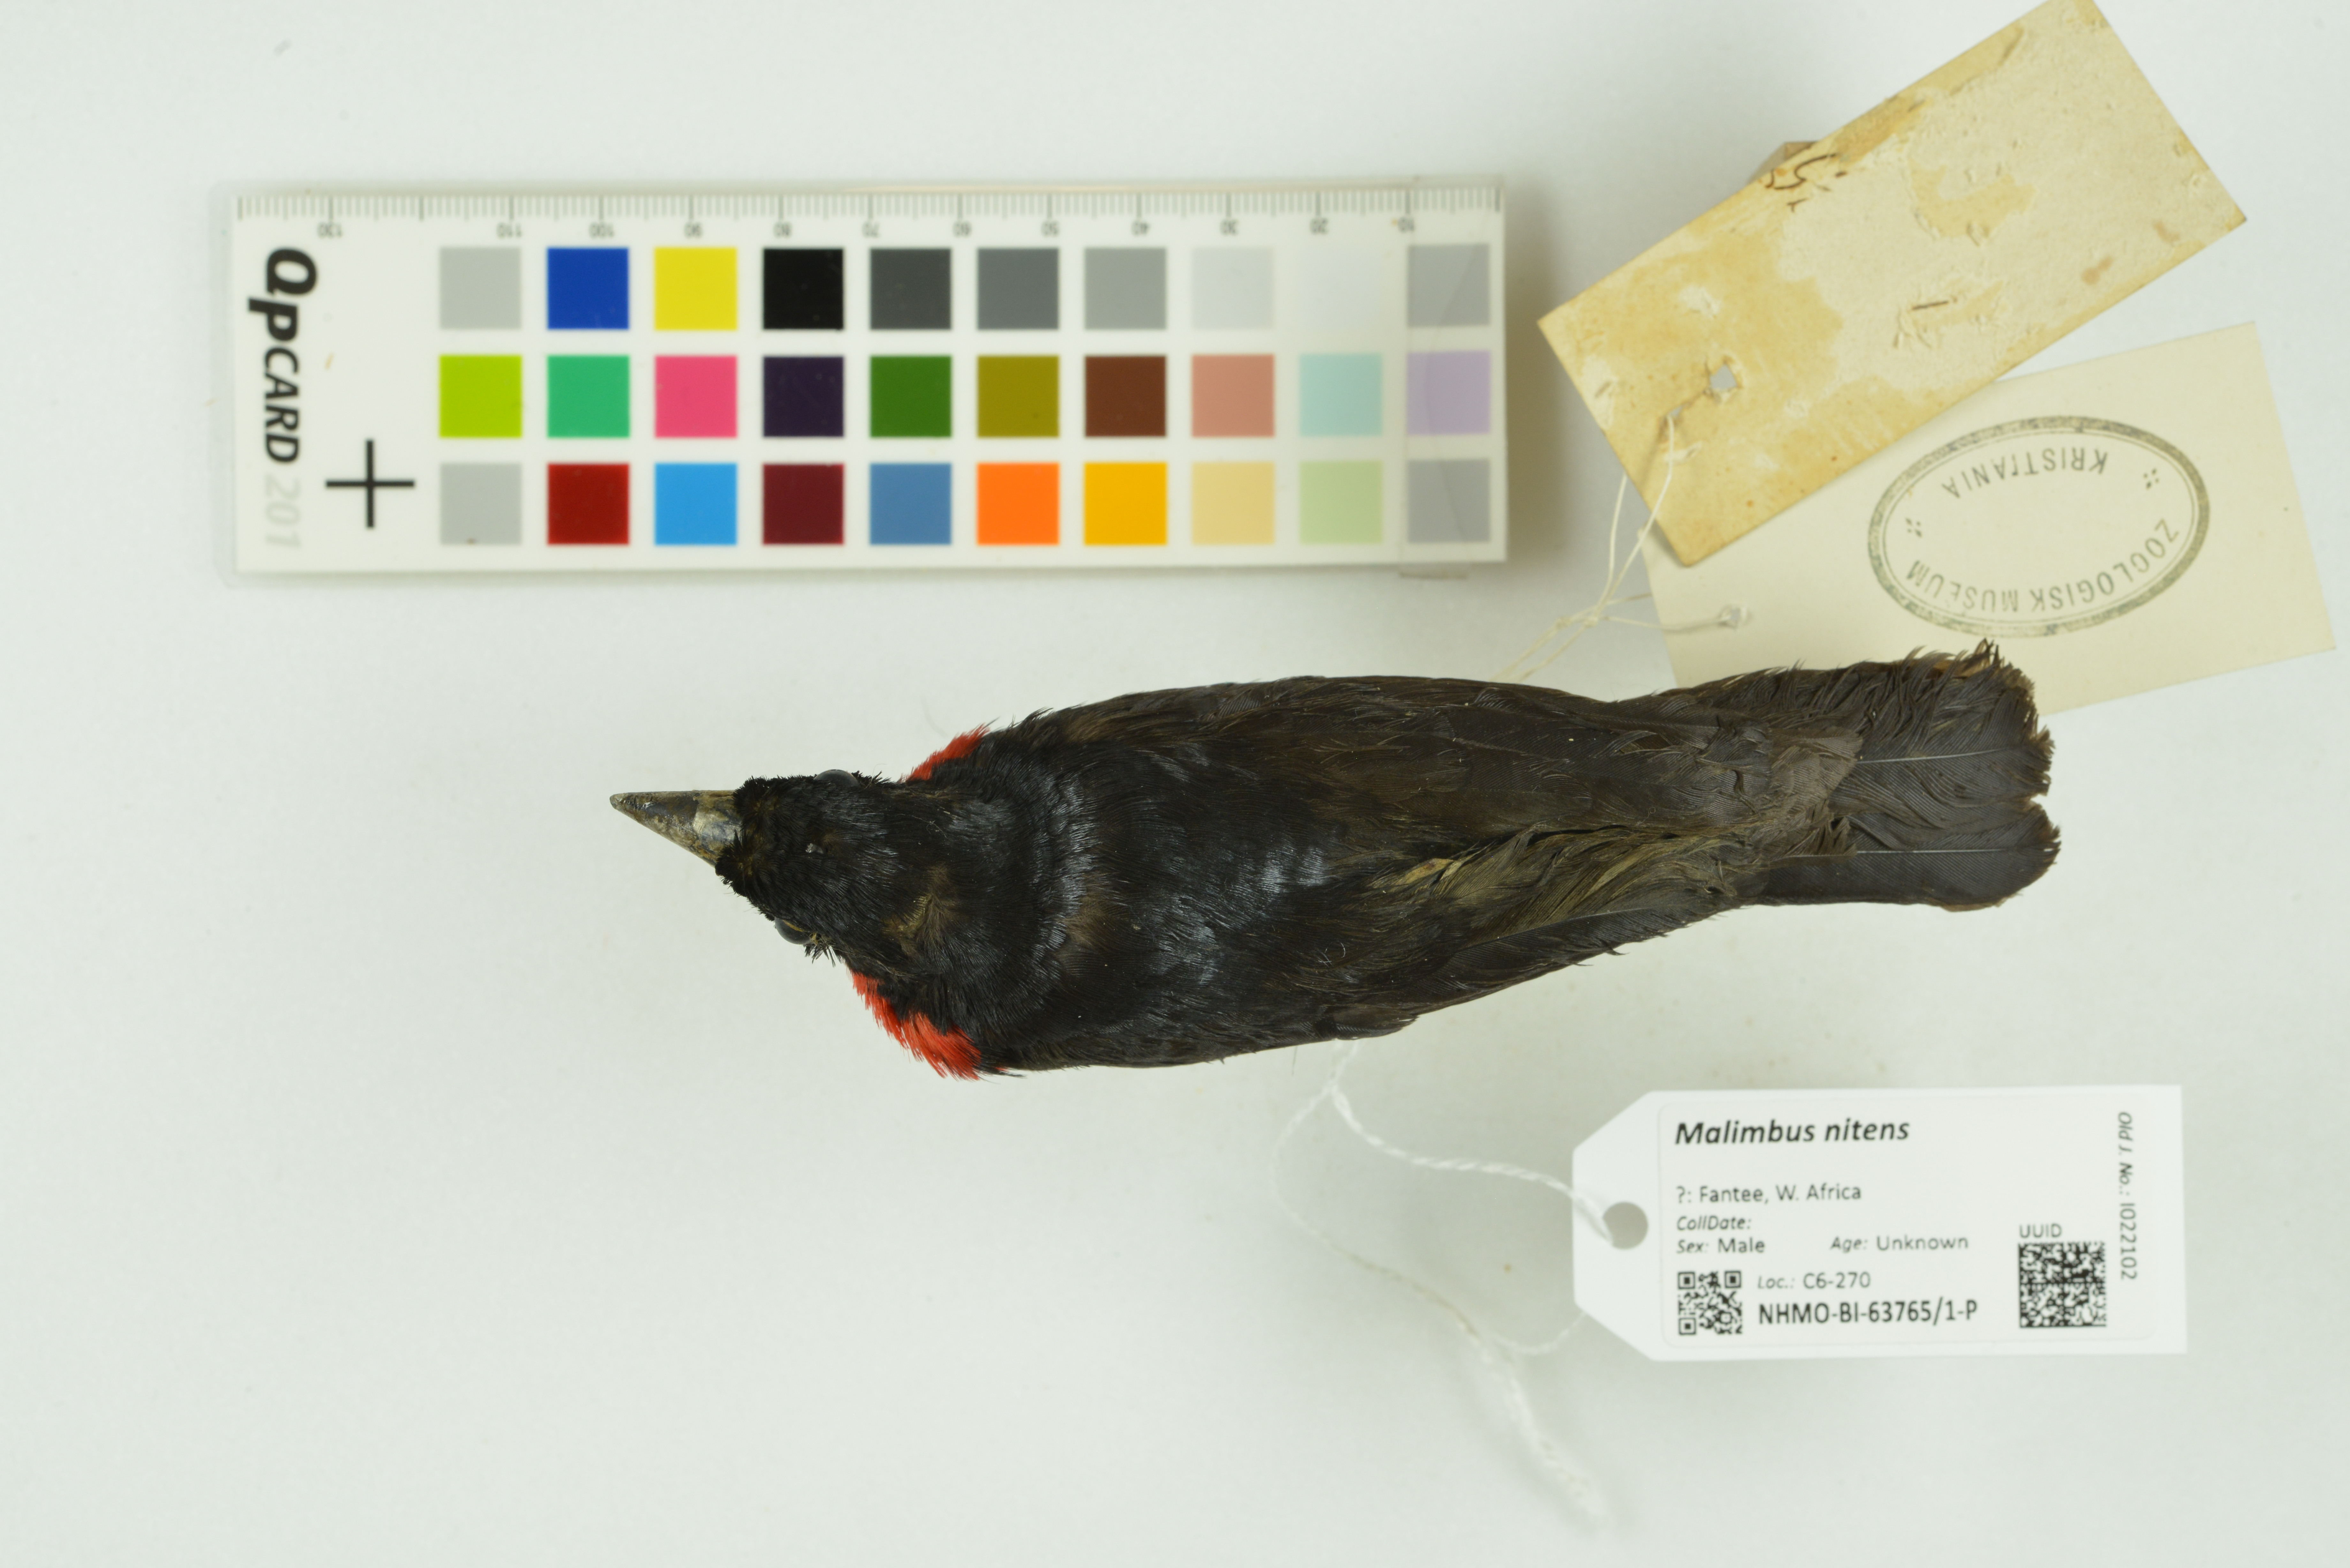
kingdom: Animalia
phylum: Chordata
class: Aves
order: Passeriformes
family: Ploceidae
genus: Malimbus
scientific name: Malimbus nitens
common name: Blue-billed malimbe
